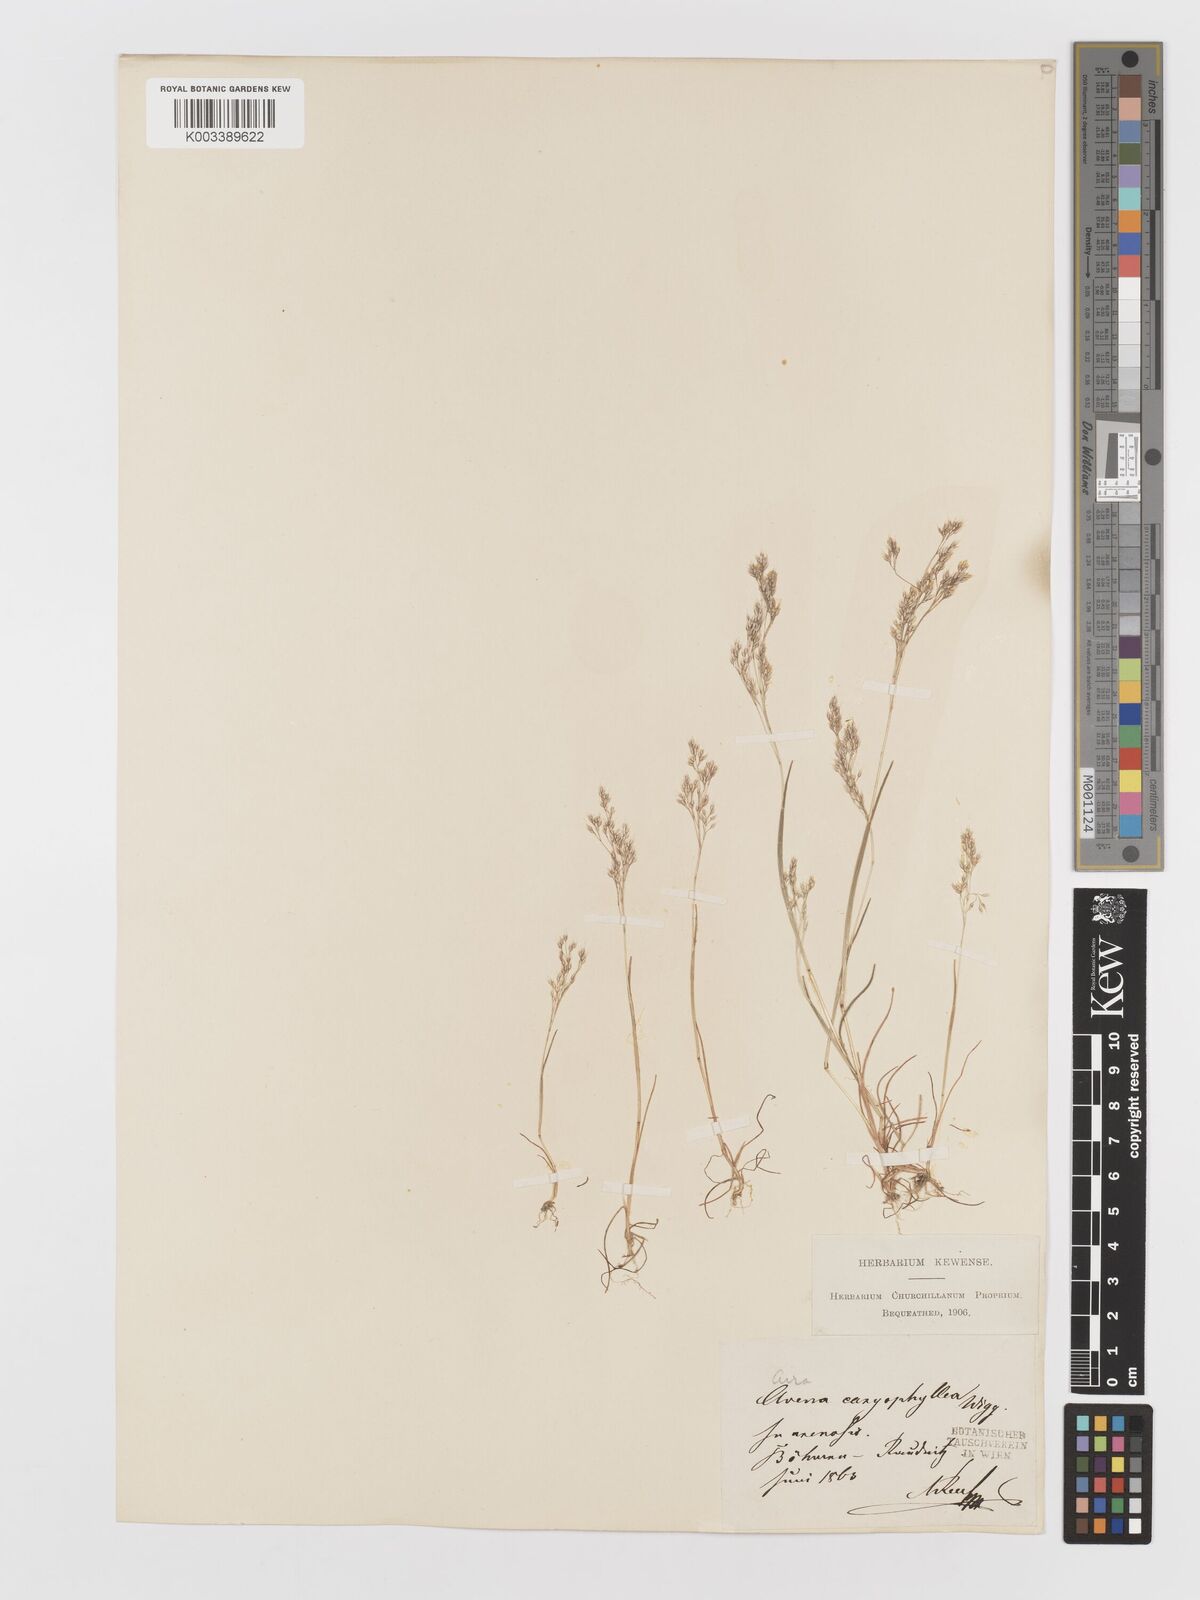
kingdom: Plantae
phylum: Tracheophyta
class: Liliopsida
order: Poales
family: Poaceae
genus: Aira
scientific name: Aira caryophyllea
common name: Silver hairgrass
